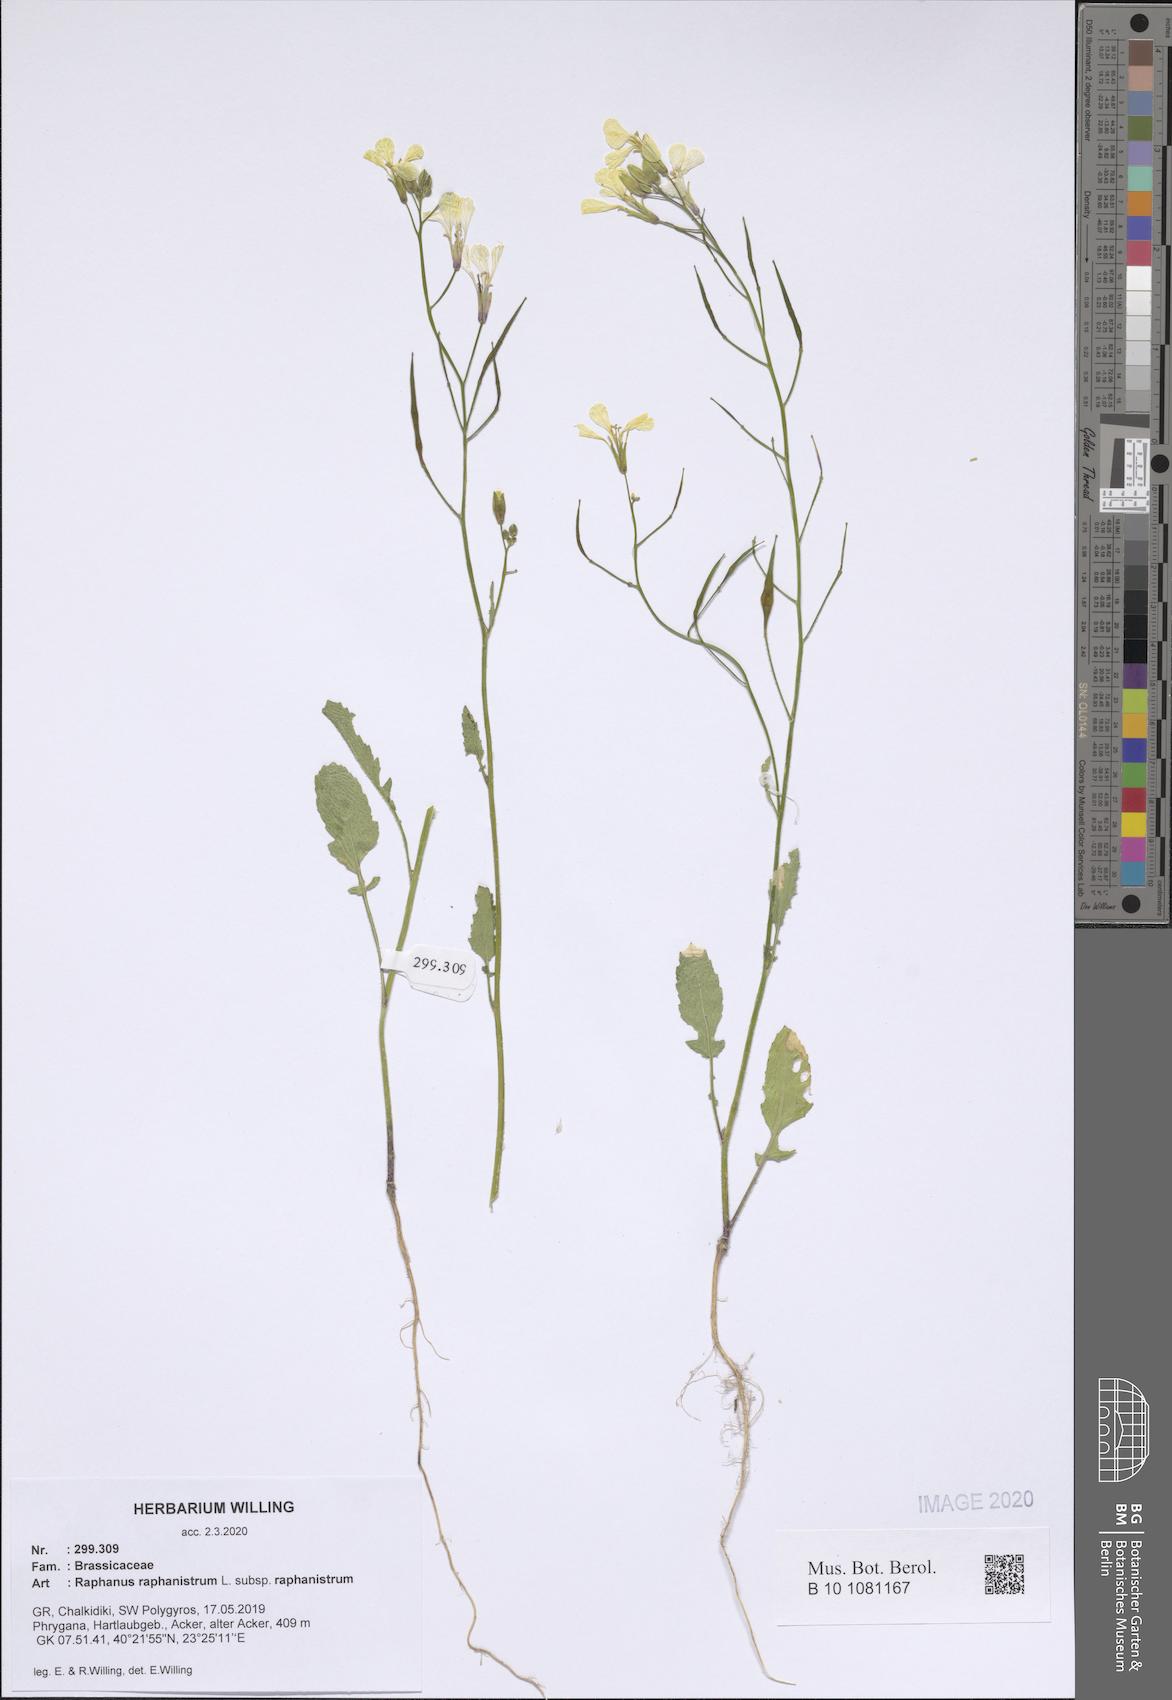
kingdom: Plantae
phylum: Tracheophyta
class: Magnoliopsida
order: Brassicales
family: Brassicaceae
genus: Raphanus
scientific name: Raphanus raphanistrum
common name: Wild radish
